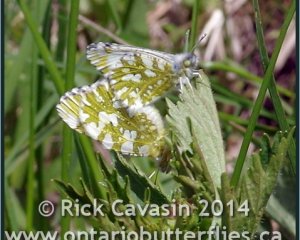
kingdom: Animalia
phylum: Arthropoda
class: Insecta
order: Lepidoptera
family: Pieridae
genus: Euchloe
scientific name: Euchloe ausonides
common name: Large Marble
